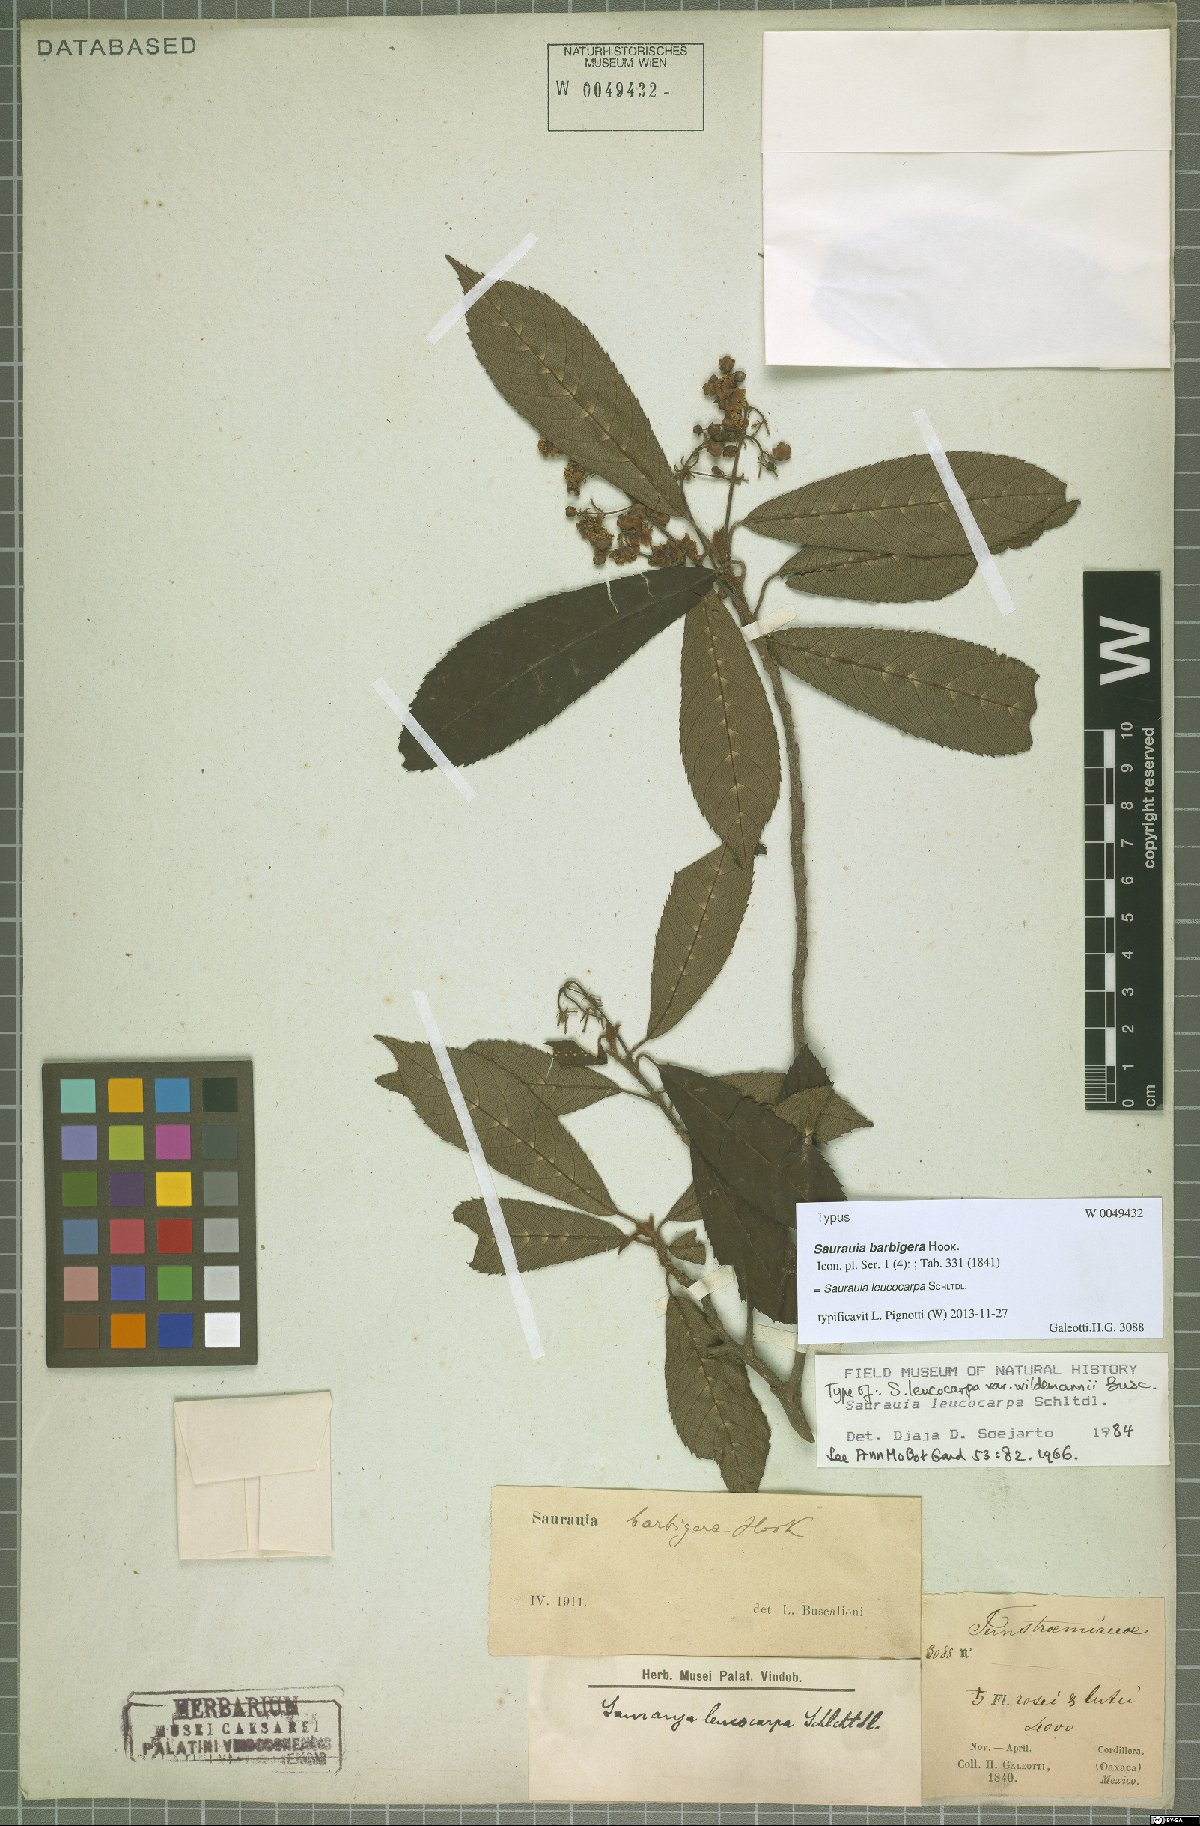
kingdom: Plantae
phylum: Tracheophyta
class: Magnoliopsida
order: Ericales
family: Actinidiaceae
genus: Saurauia
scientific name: Saurauia leucocarpa
